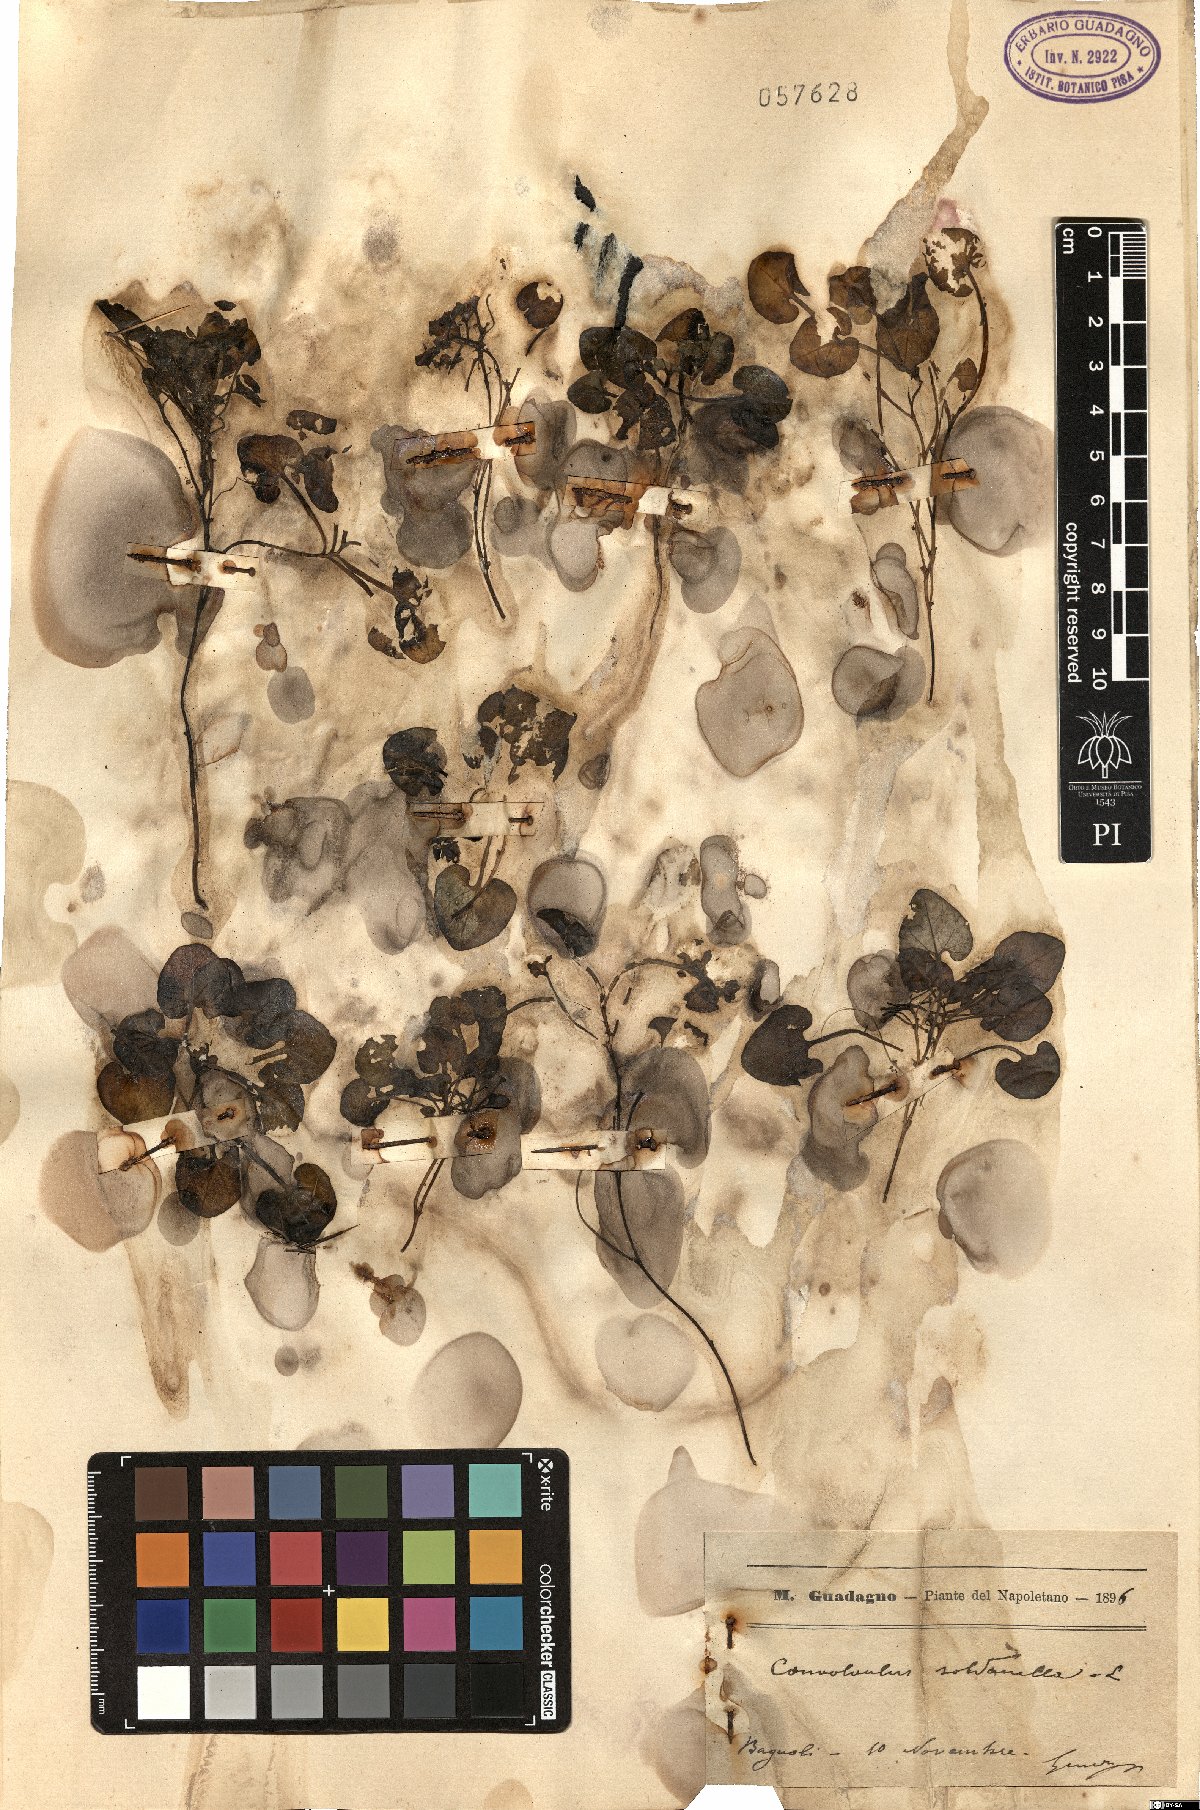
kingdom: Plantae
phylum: Tracheophyta
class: Magnoliopsida
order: Solanales
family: Convolvulaceae
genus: Calystegia
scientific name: Calystegia soldanella
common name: Sea bindweed
